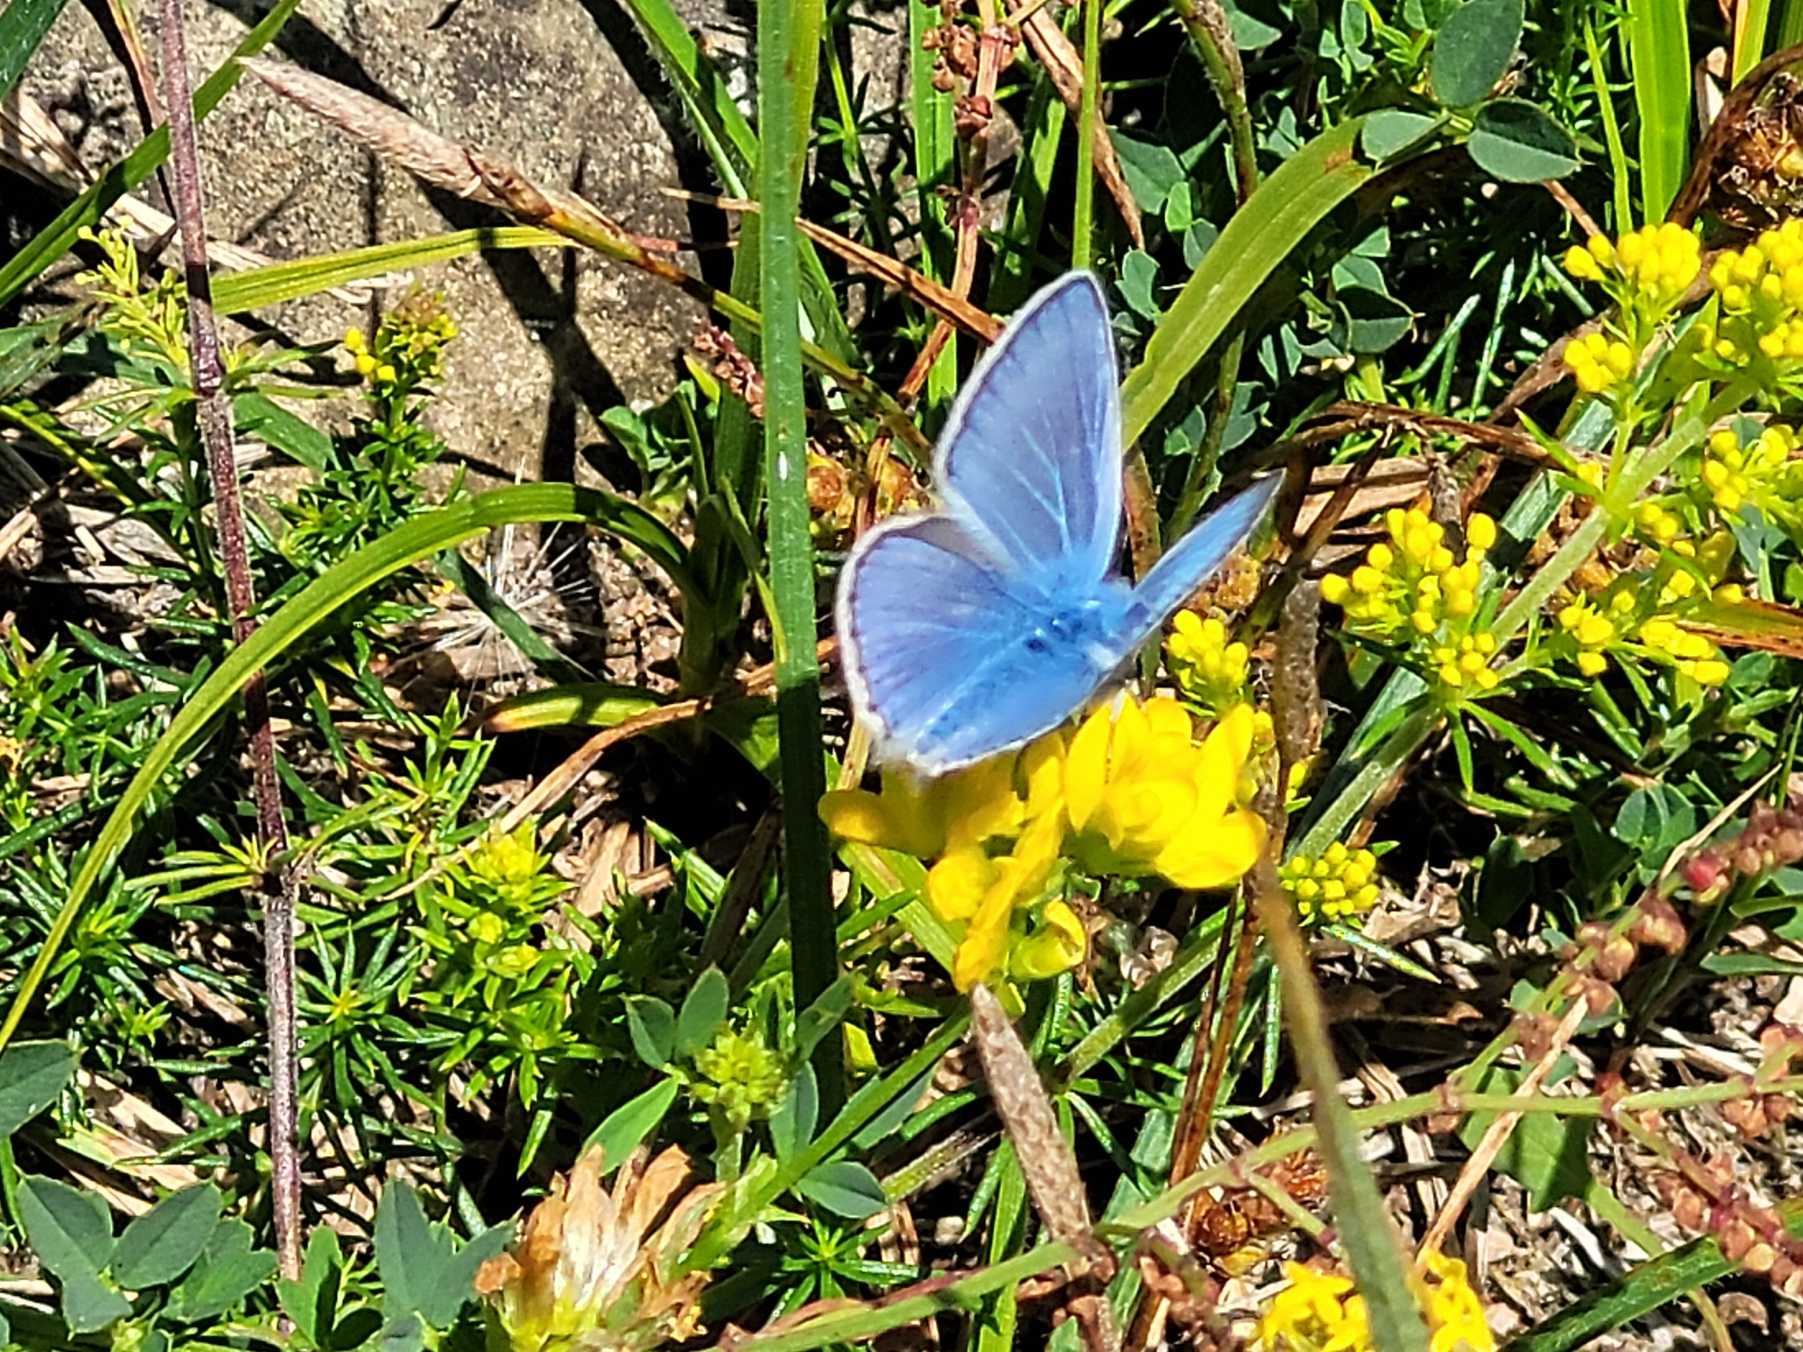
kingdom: Animalia
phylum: Arthropoda
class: Insecta
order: Lepidoptera
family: Lycaenidae
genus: Polyommatus
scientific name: Polyommatus icarus
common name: Almindelig blåfugl
